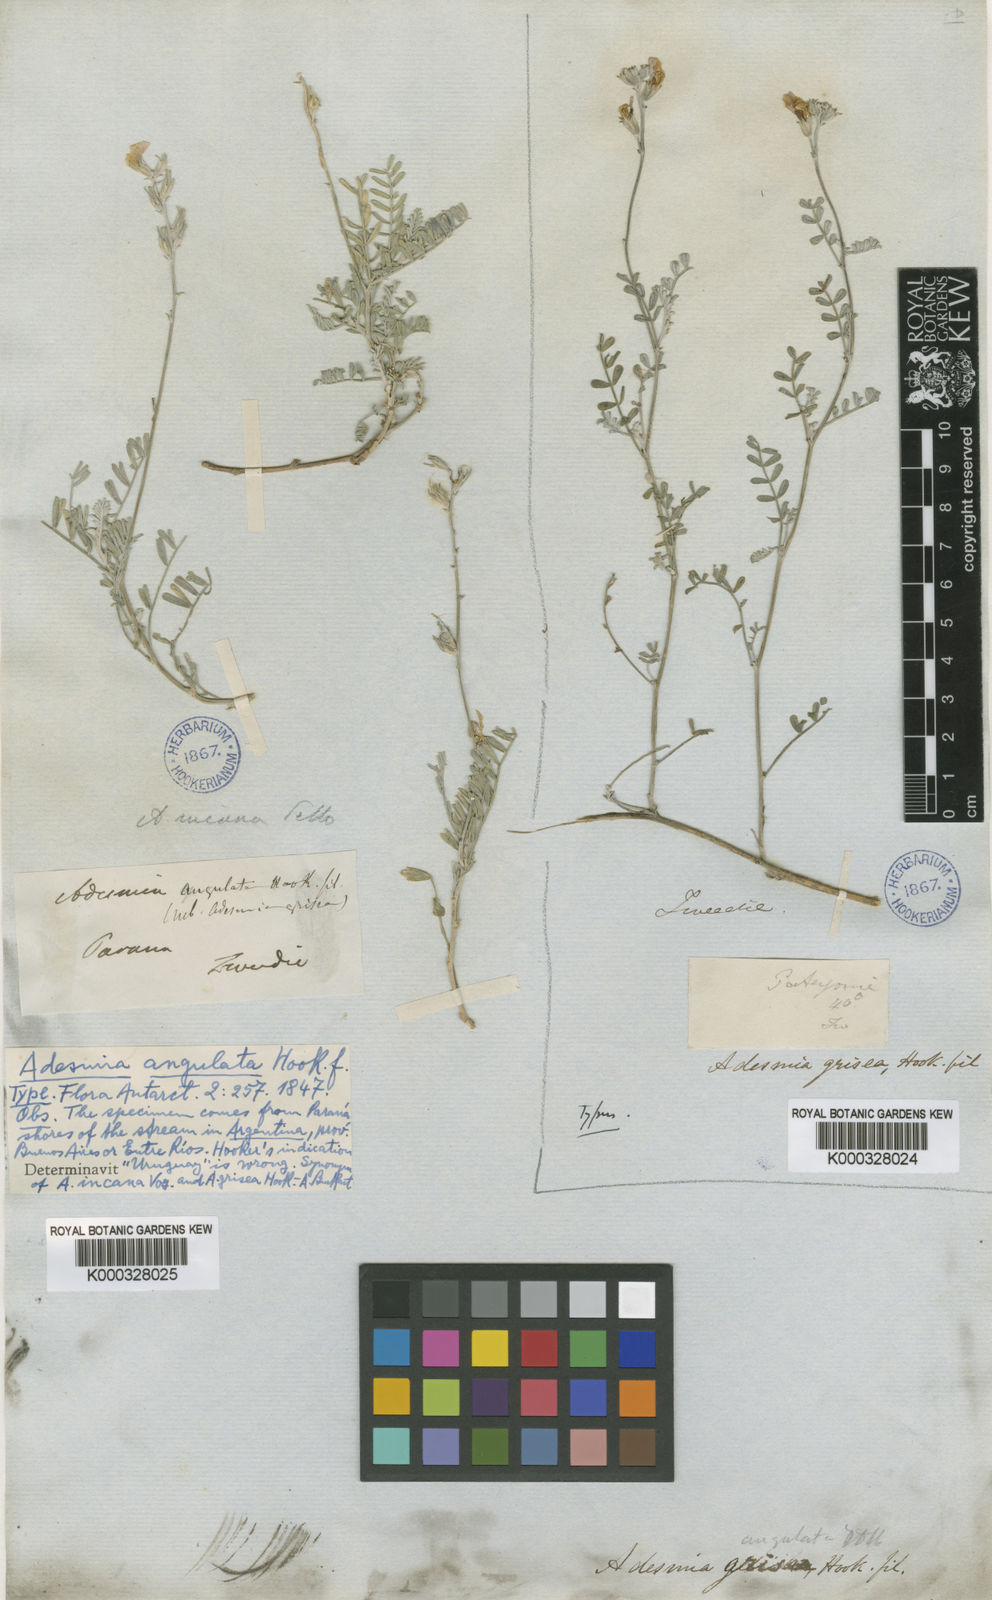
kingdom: Plantae
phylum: Tracheophyta
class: Magnoliopsida
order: Fabales
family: Fabaceae
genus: Adesmia
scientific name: Adesmia incana
